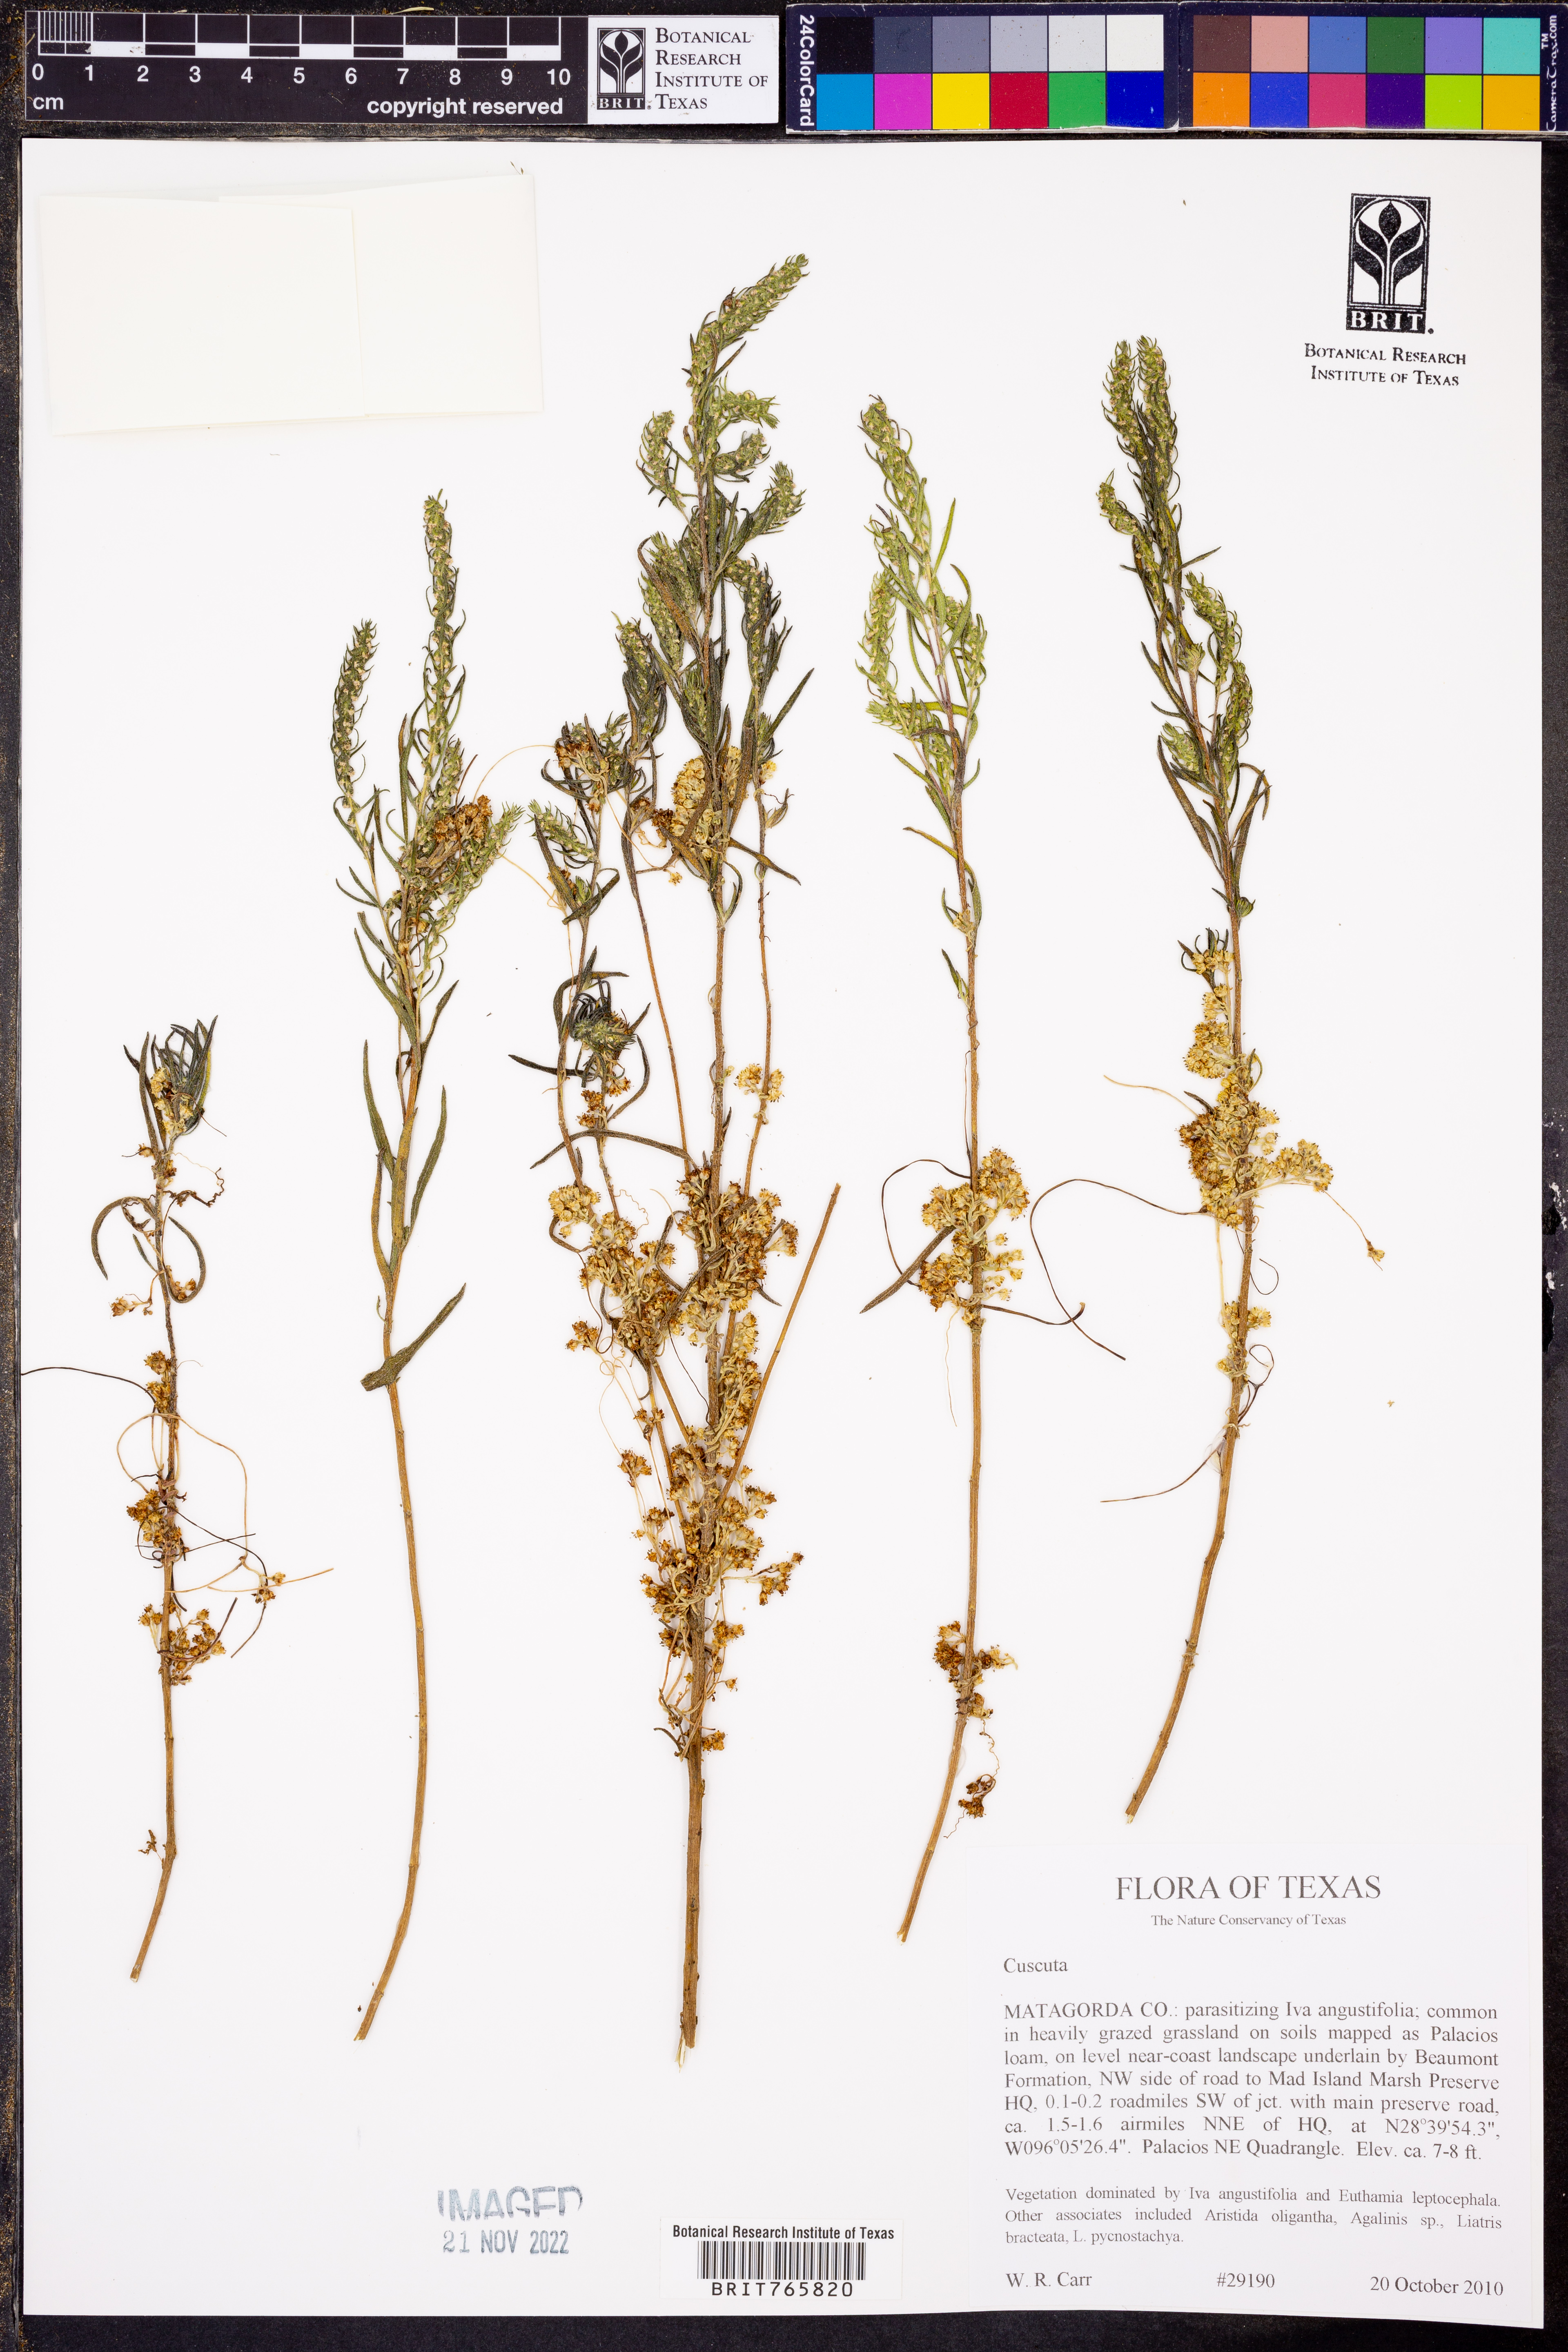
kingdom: Plantae
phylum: Tracheophyta
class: Magnoliopsida
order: Solanales
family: Convolvulaceae
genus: Cuscuta
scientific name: Cuscuta
